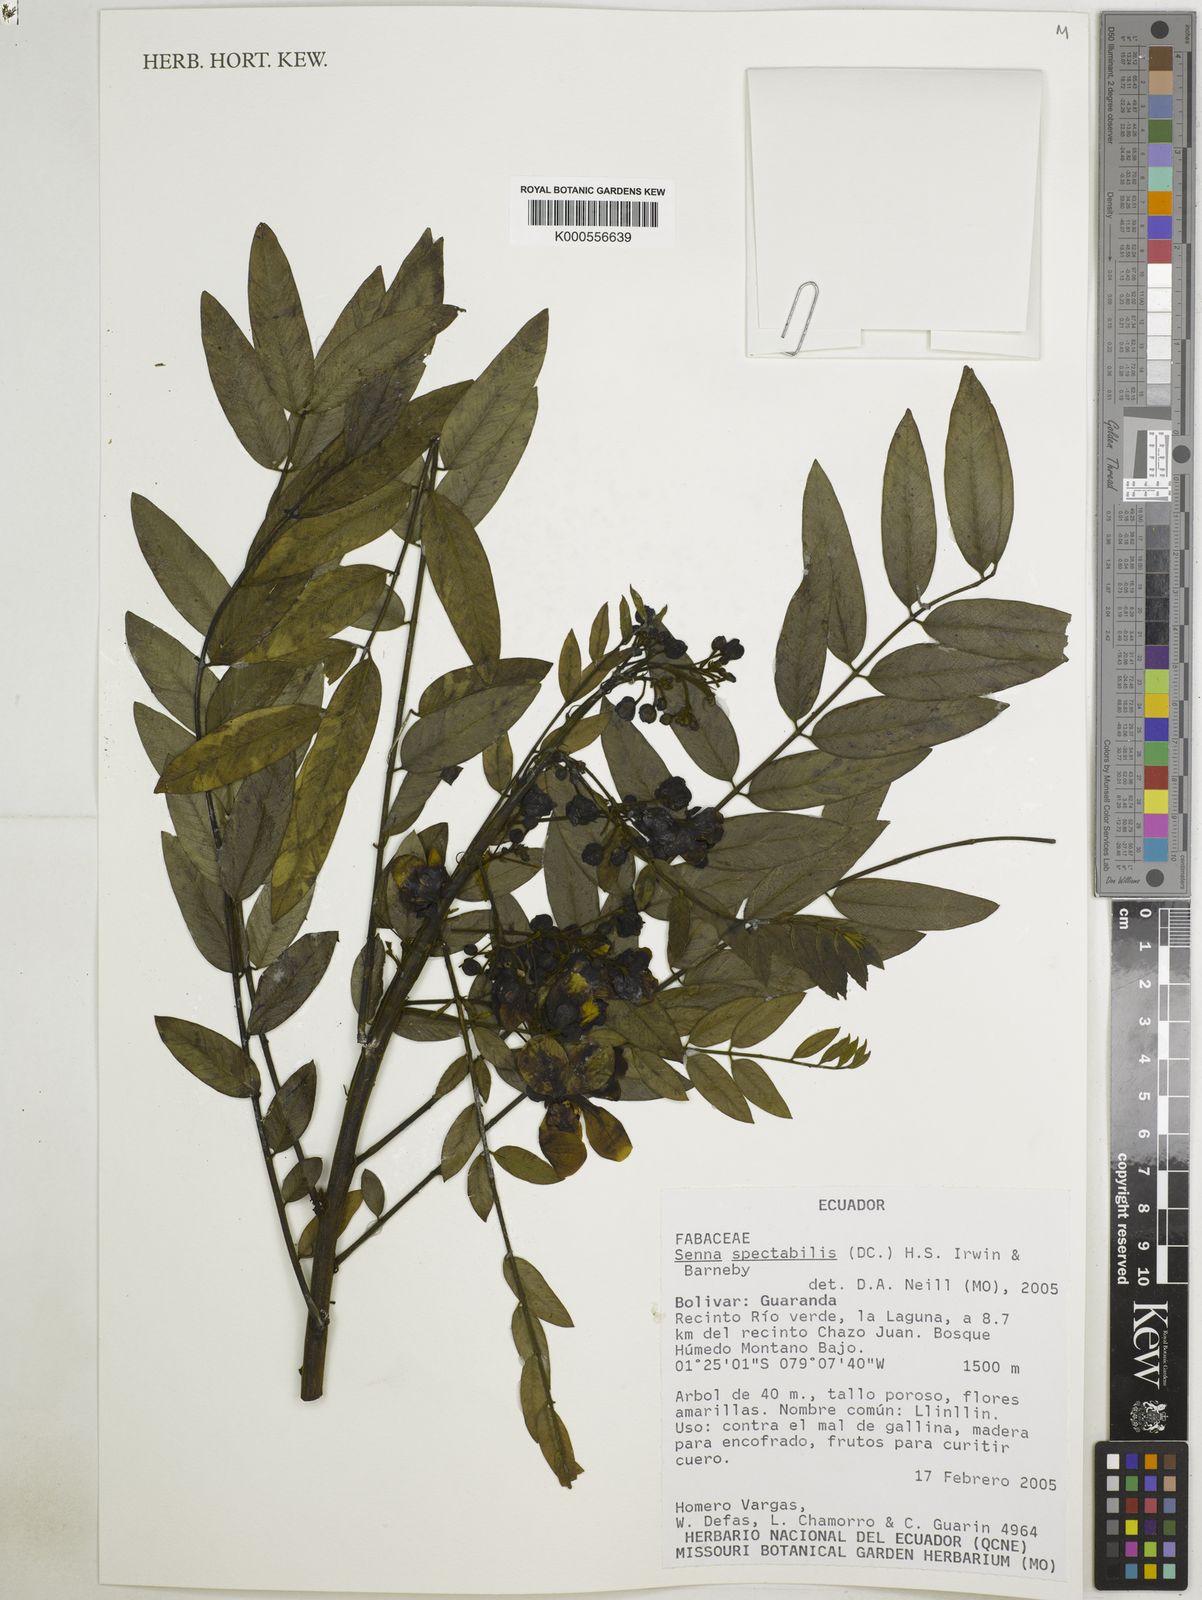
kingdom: Plantae
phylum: Tracheophyta
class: Magnoliopsida
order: Fabales
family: Fabaceae
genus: Senna
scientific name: Senna spectabilis
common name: Casia amarilla
